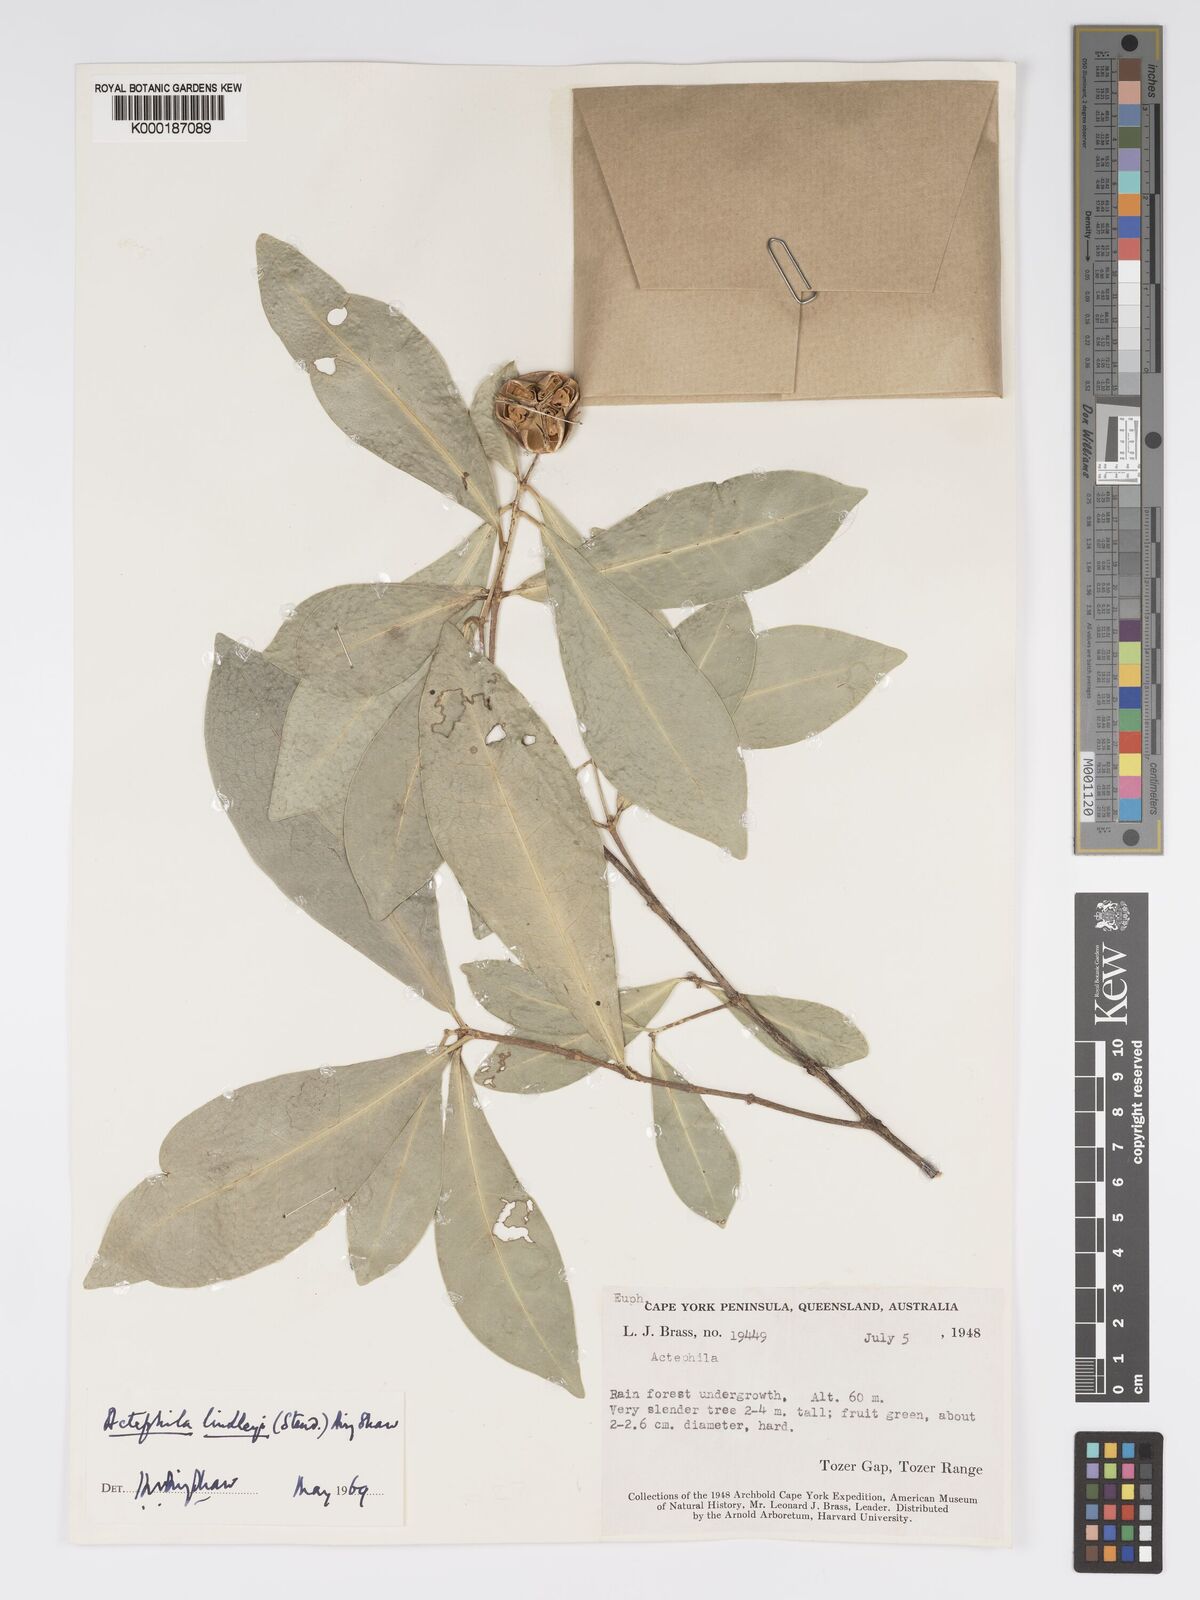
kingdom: Plantae
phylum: Tracheophyta
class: Magnoliopsida
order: Malpighiales
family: Phyllanthaceae
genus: Actephila
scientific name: Actephila lindleyi
